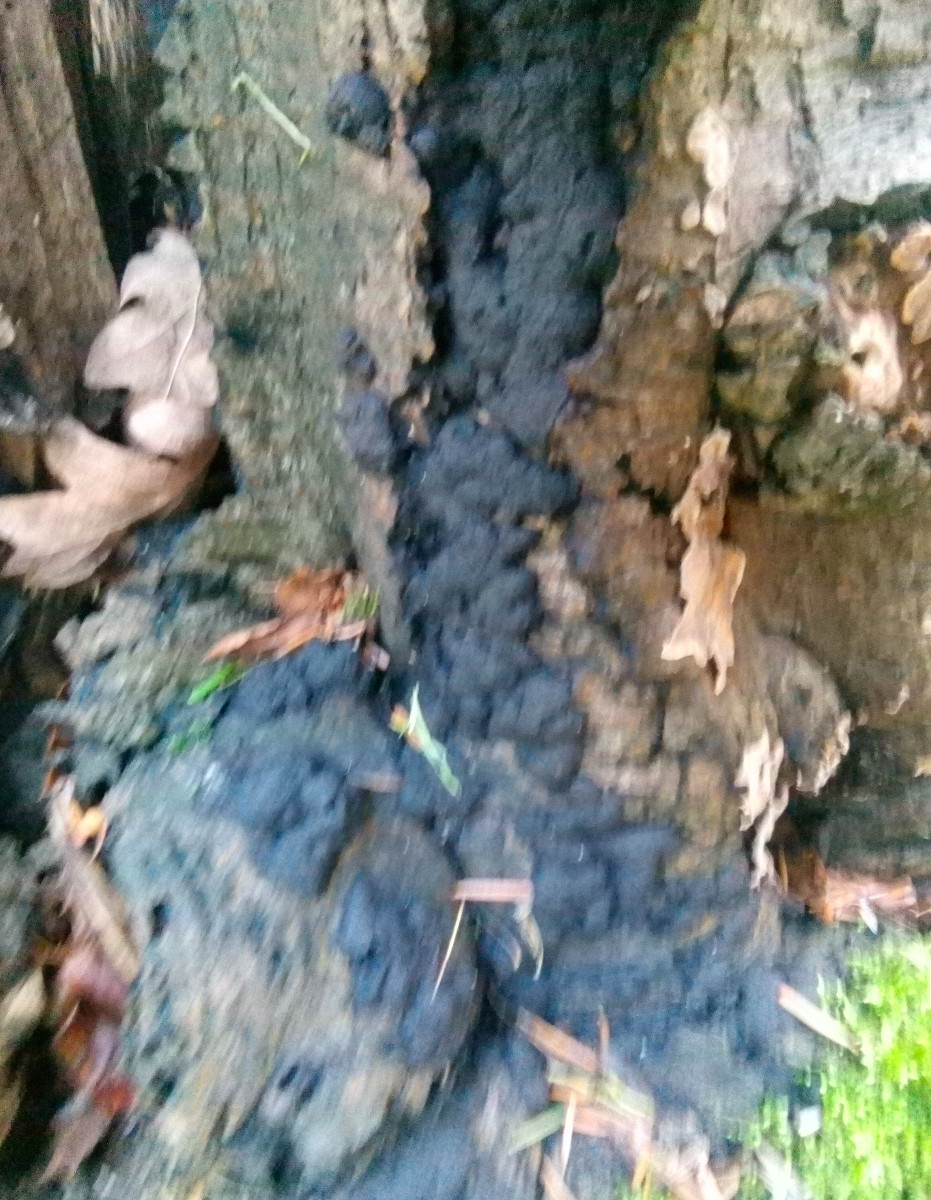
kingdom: Fungi
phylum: Ascomycota
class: Sordariomycetes
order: Xylariales
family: Hypoxylaceae
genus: Jackrogersella
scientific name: Jackrogersella multiformis
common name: foranderlig kulbær
